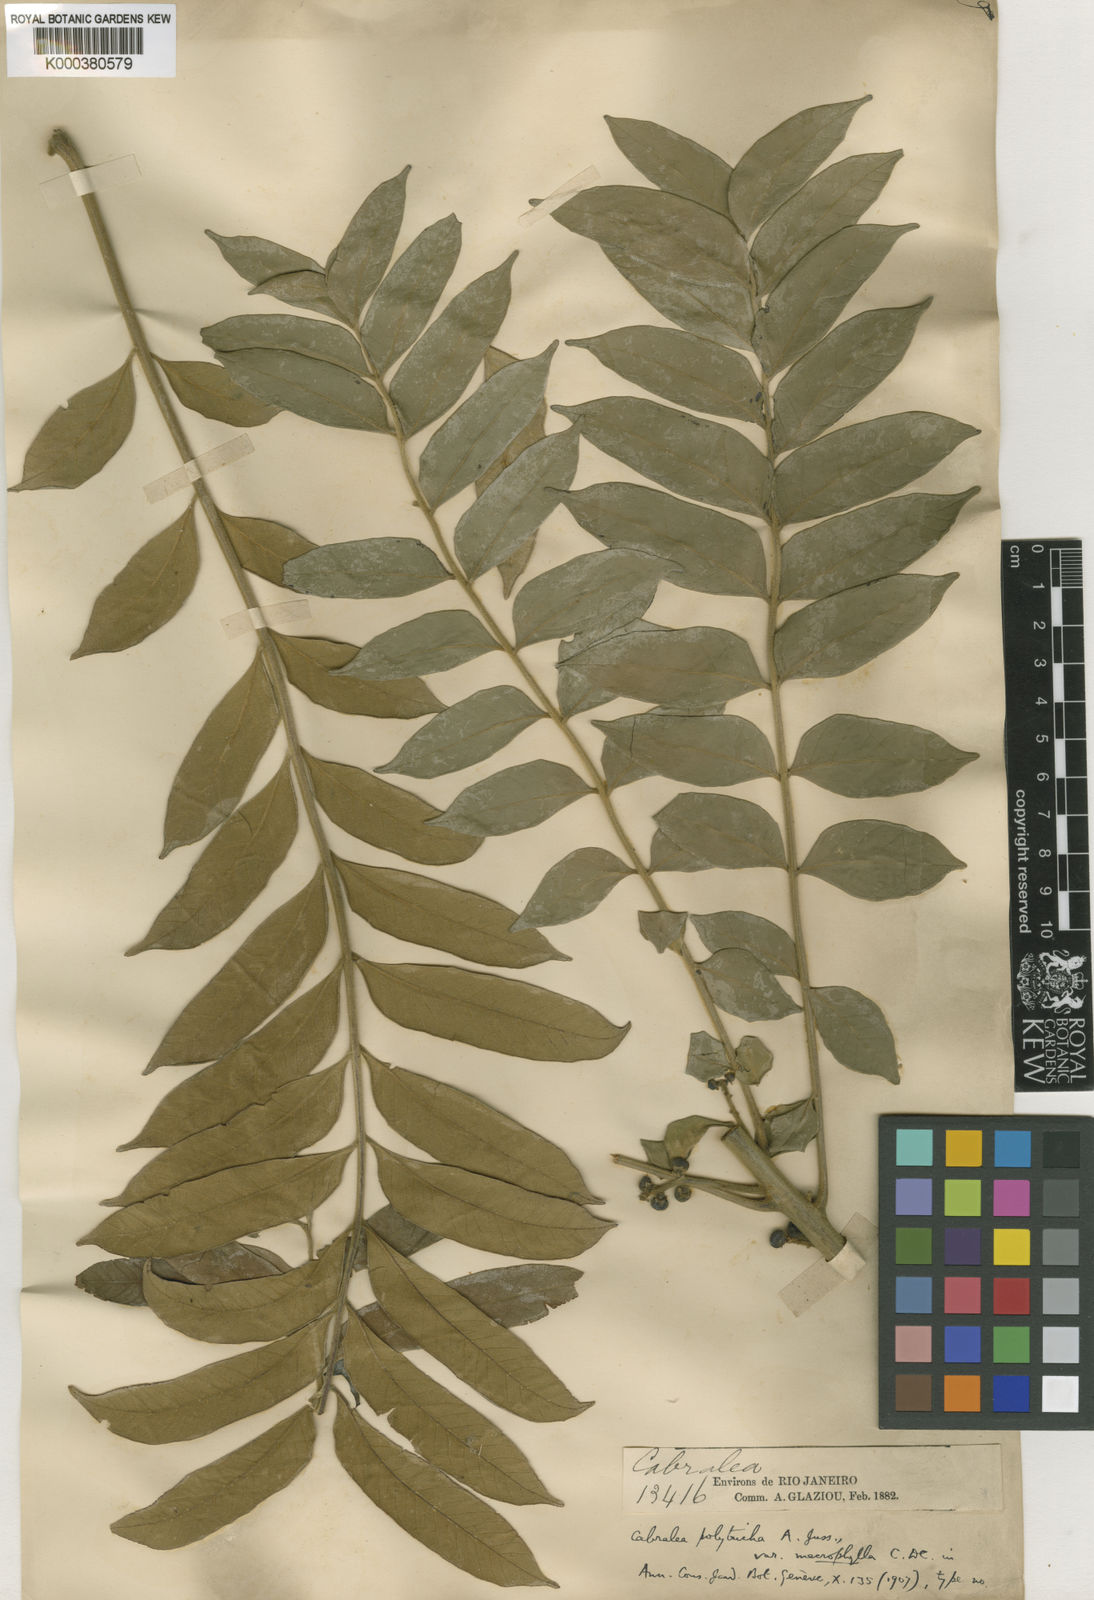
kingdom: Plantae
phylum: Tracheophyta
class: Magnoliopsida
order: Sapindales
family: Meliaceae
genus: Cabralea
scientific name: Cabralea canjerana
